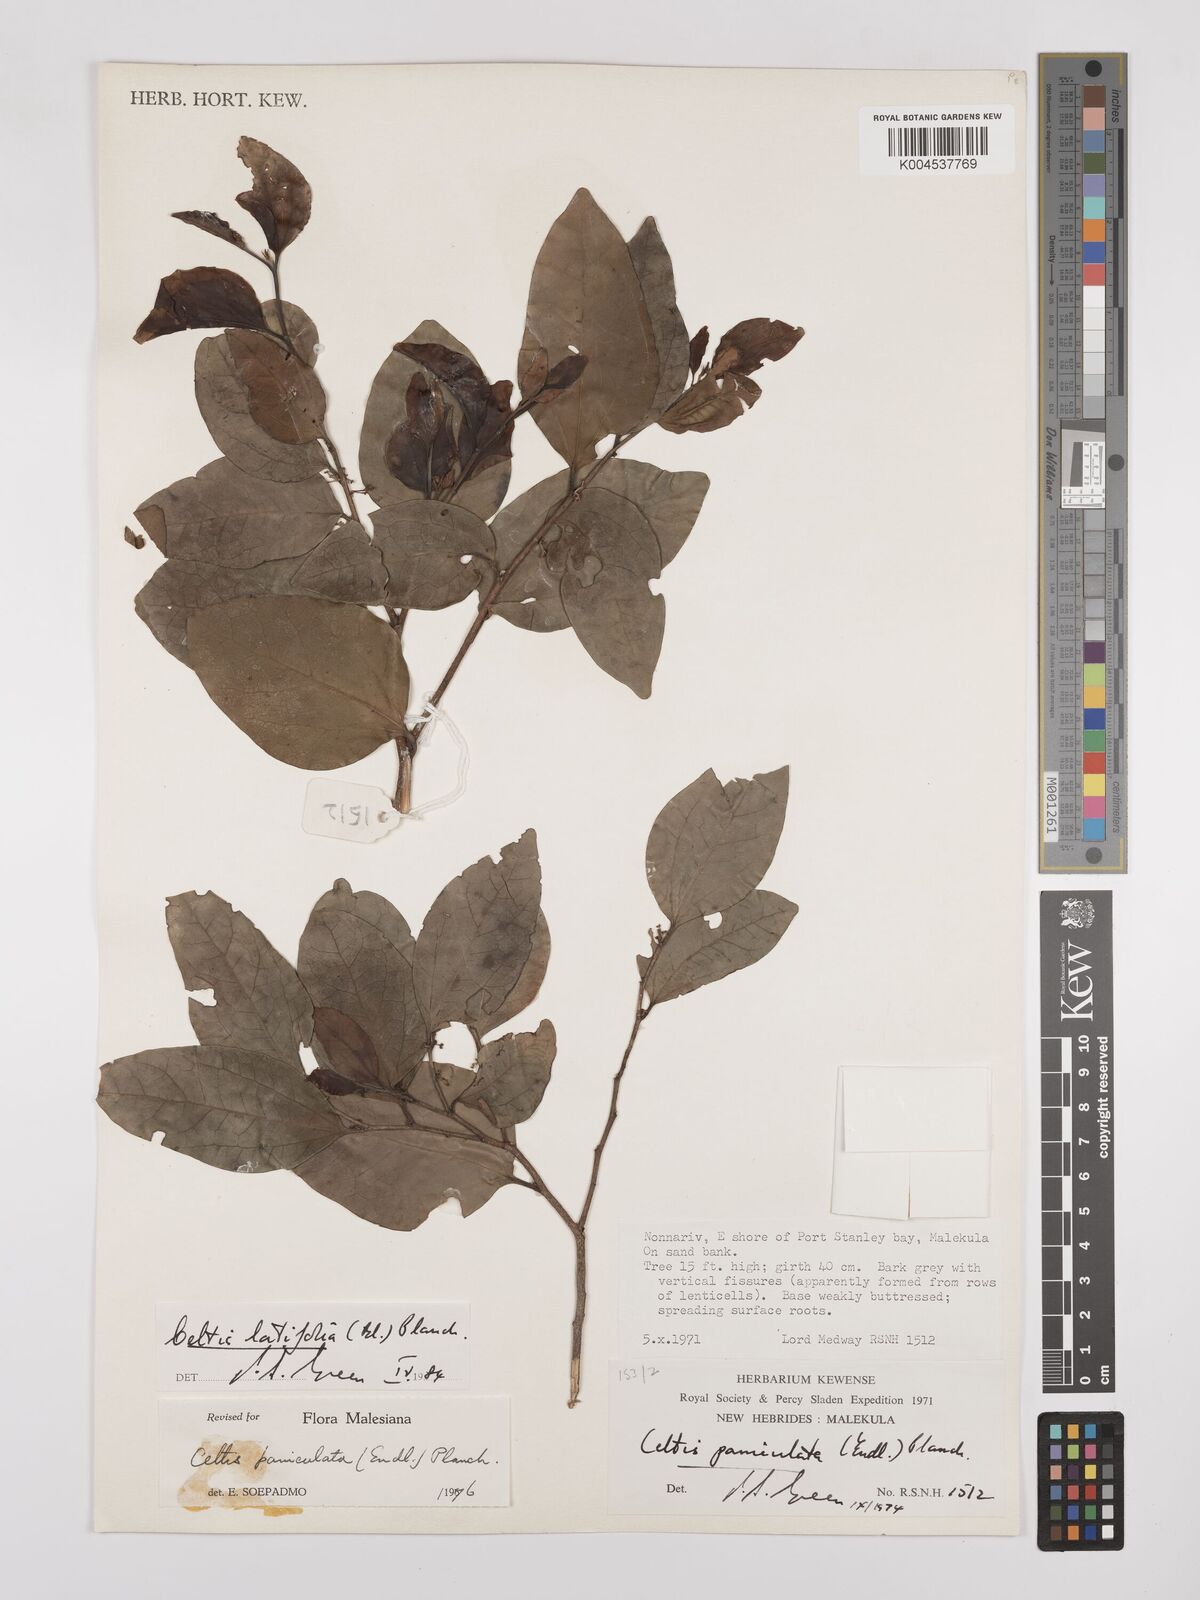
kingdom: Plantae
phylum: Tracheophyta
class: Magnoliopsida
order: Rosales
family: Cannabaceae
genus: Celtis
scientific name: Celtis latifolia
